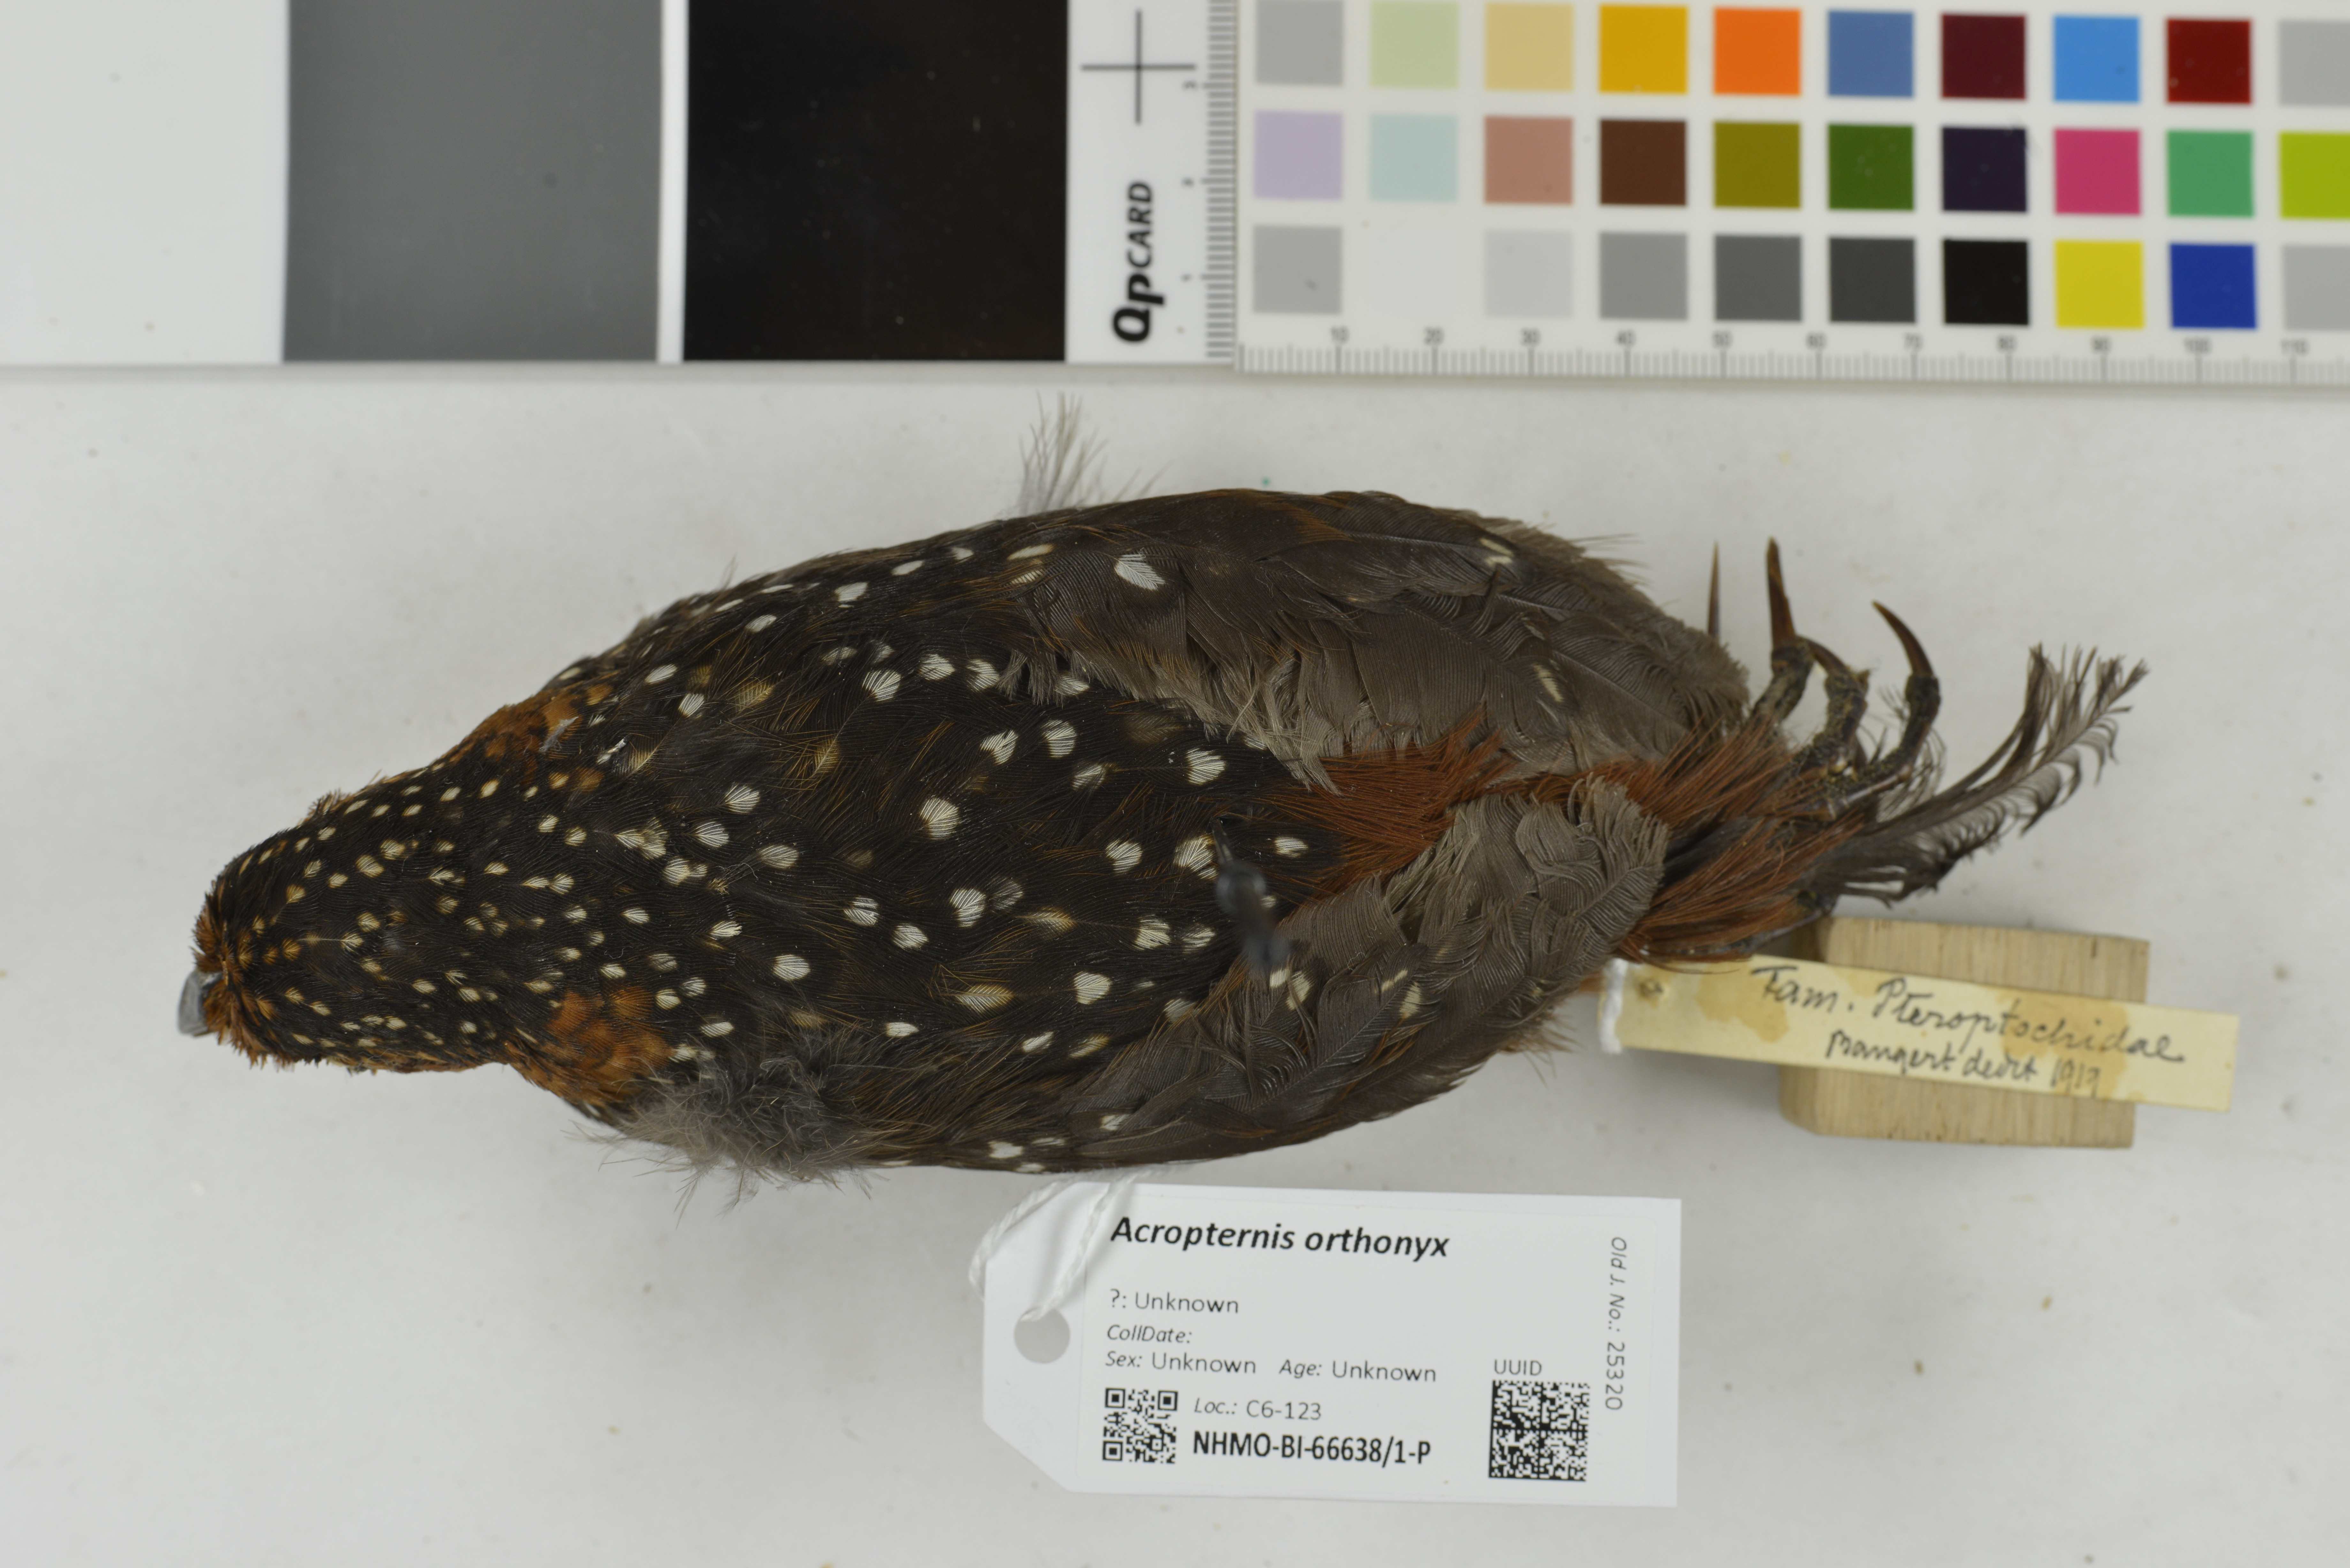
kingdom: Animalia
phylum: Chordata
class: Aves
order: Passeriformes
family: Rhinocryptidae
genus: Acropternis
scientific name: Acropternis orthonyx
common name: Ocellated tapaculo
